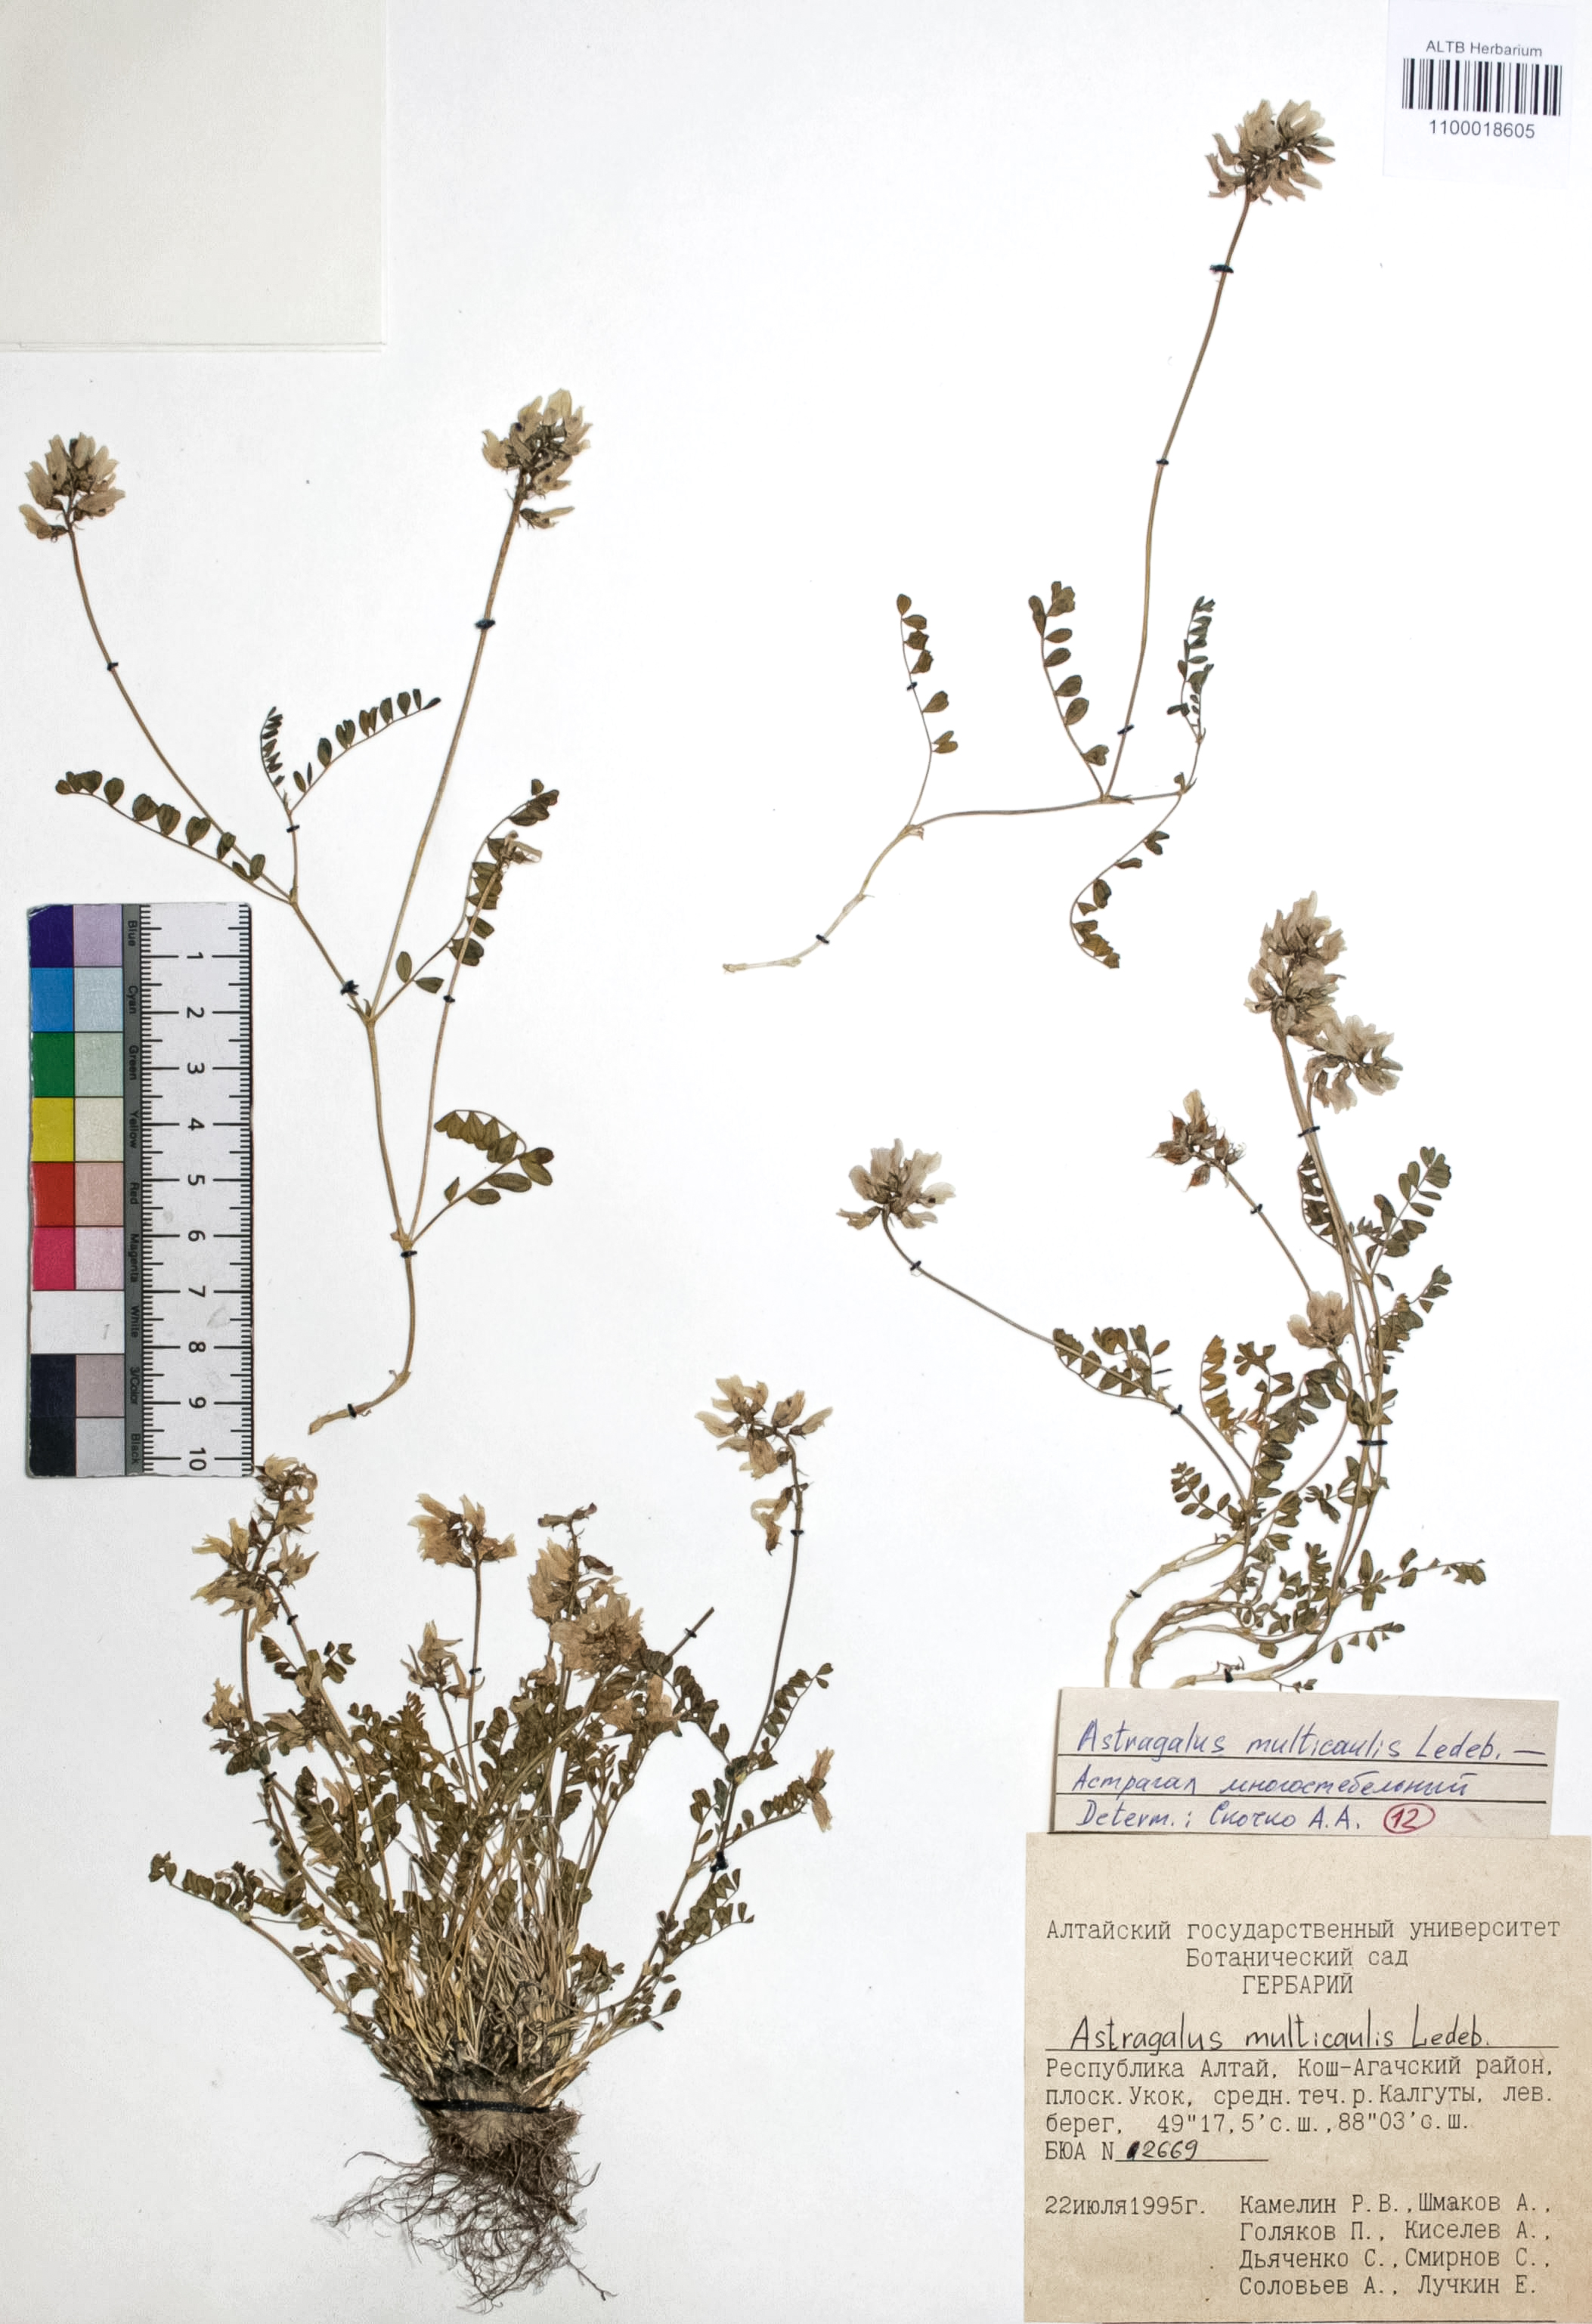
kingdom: Plantae
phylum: Tracheophyta
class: Magnoliopsida
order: Fabales
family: Fabaceae
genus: Astragalus
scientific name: Astragalus leptostachys
